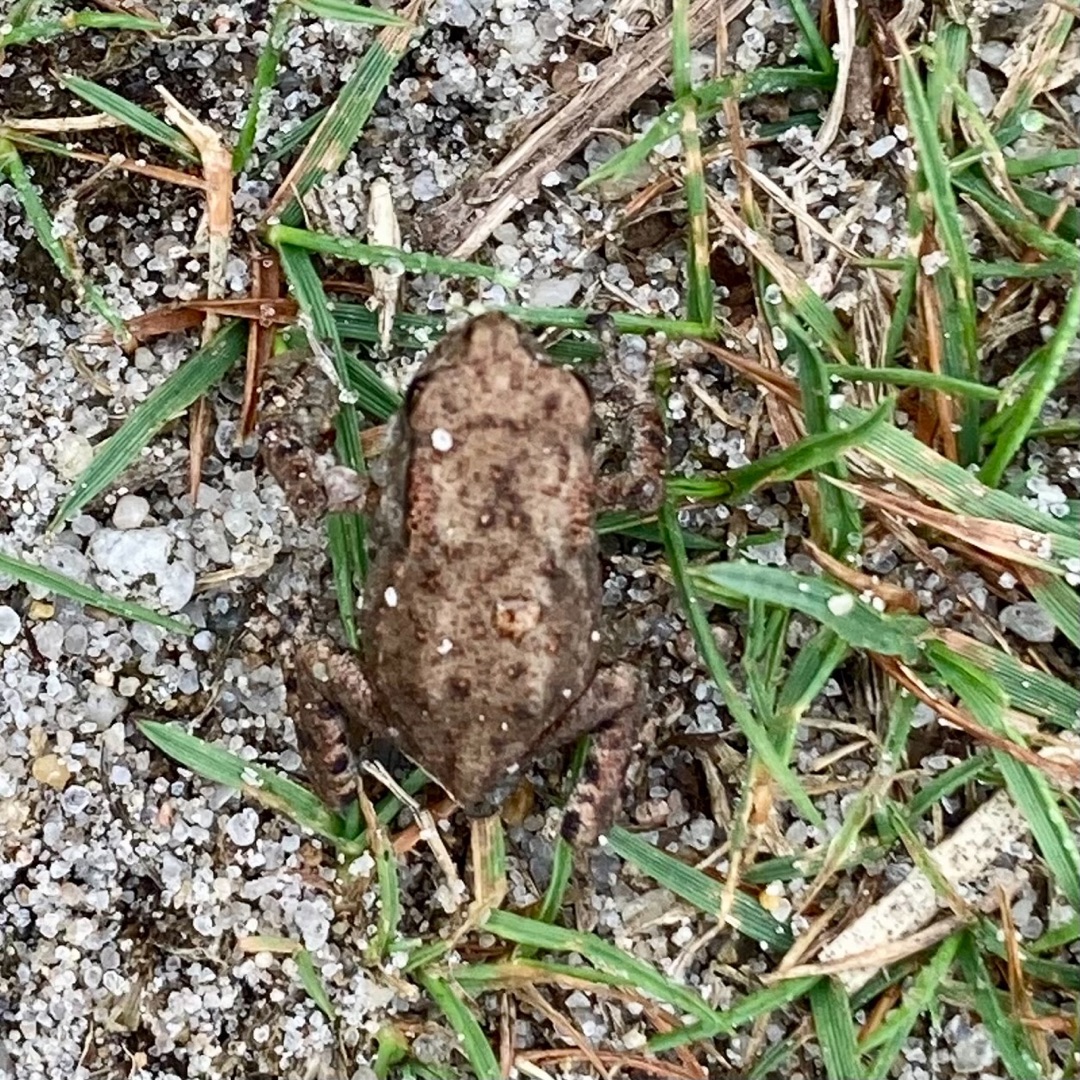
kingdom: Animalia
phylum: Chordata
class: Amphibia
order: Anura
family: Bufonidae
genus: Bufo
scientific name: Bufo bufo
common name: Skrubtudse
